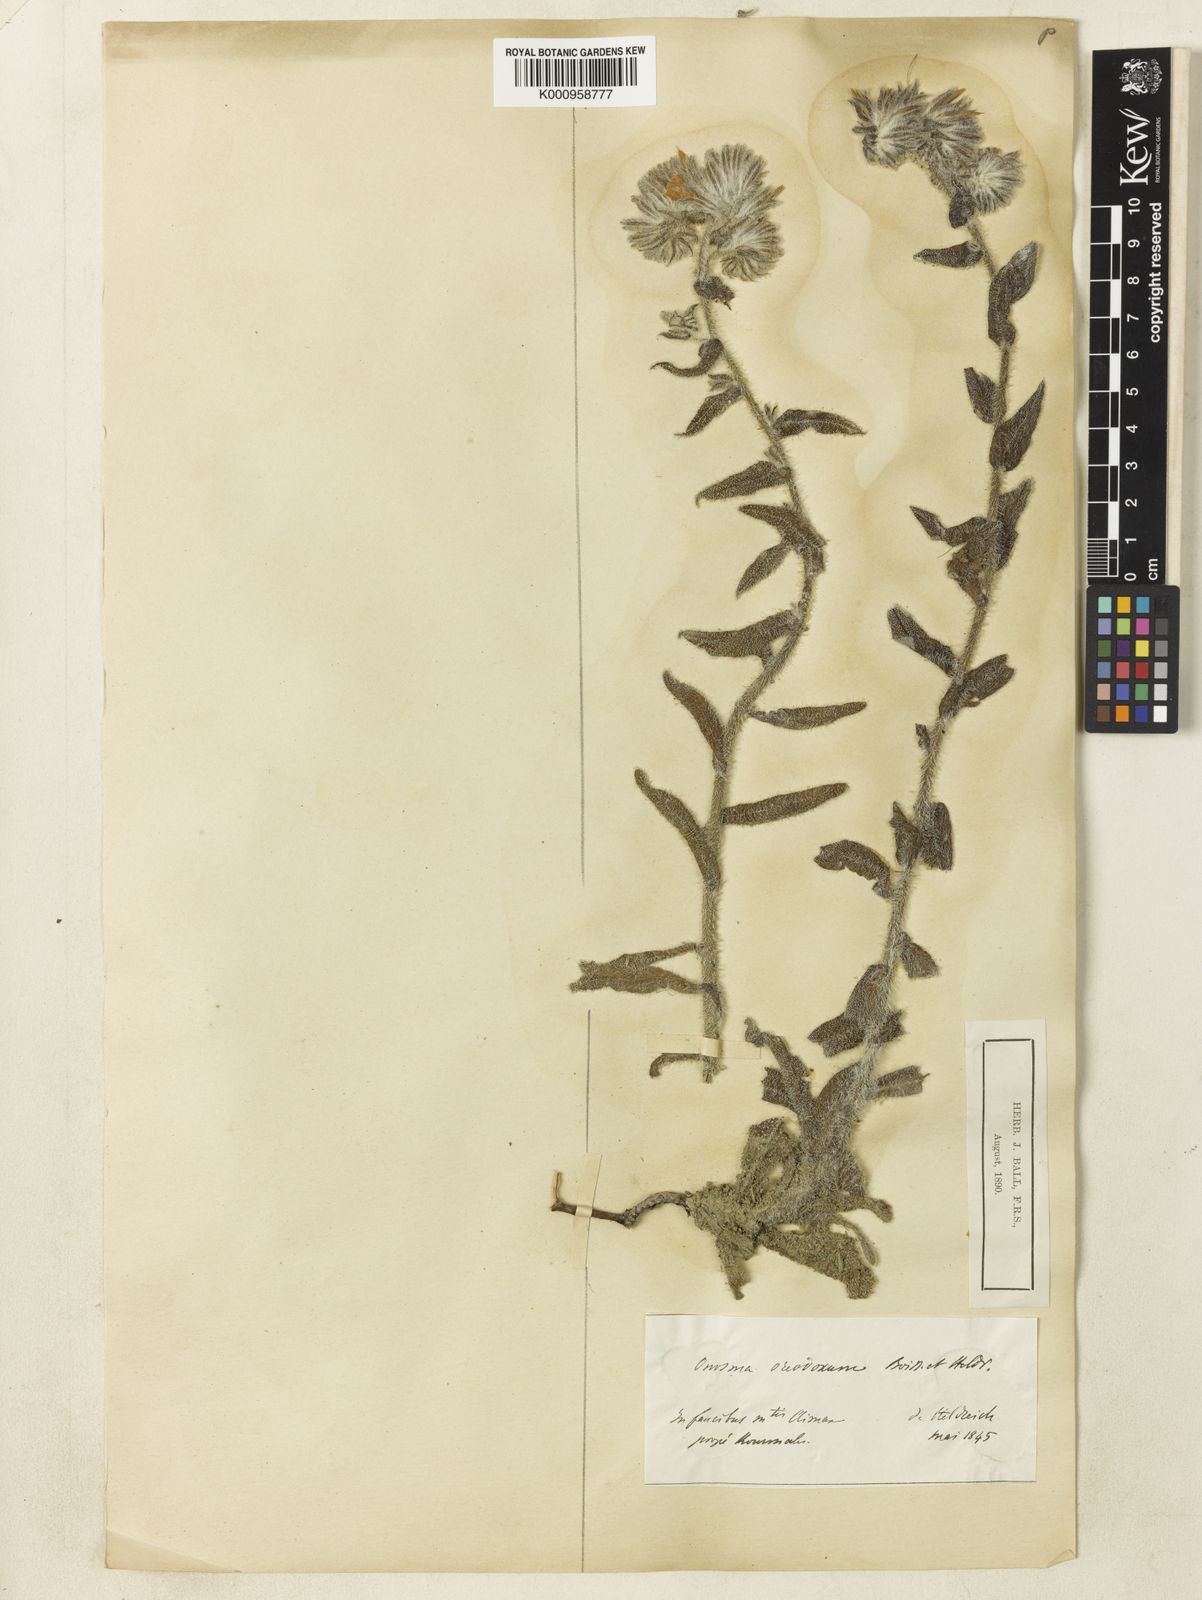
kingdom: Plantae
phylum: Tracheophyta
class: Magnoliopsida
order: Boraginales
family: Boraginaceae
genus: Onosma
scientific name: Onosma oreodoxa
